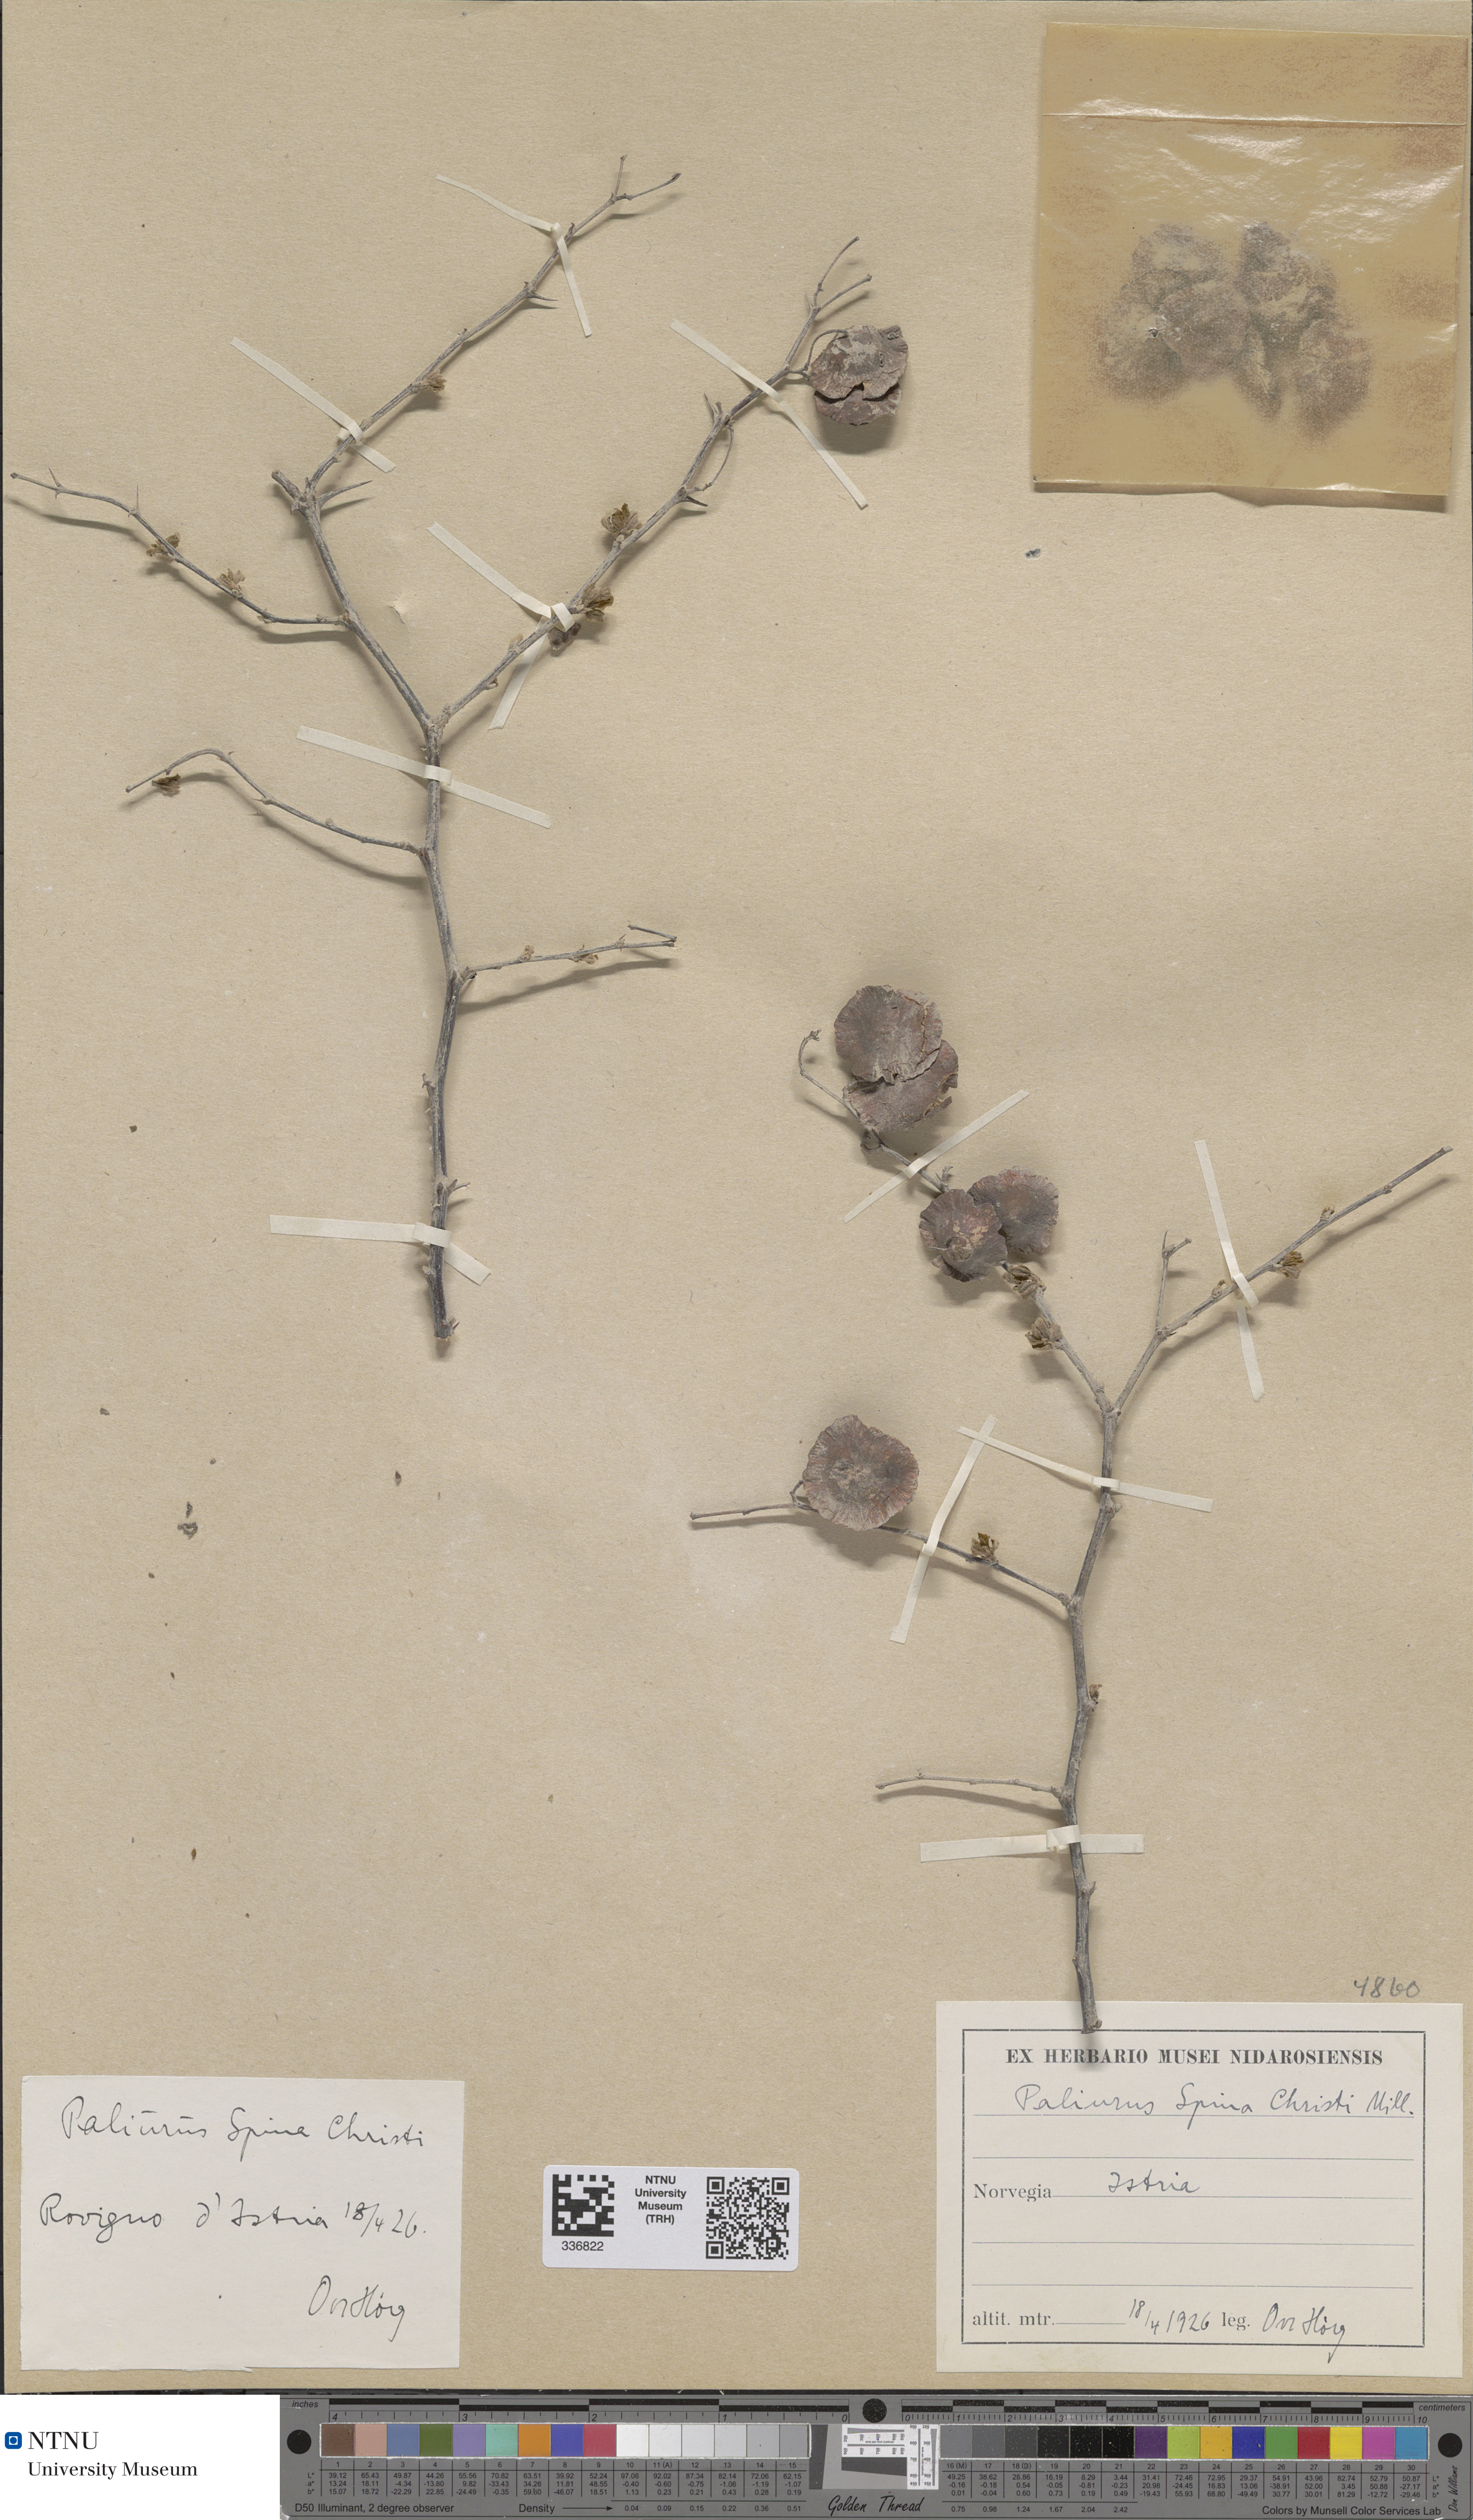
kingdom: Plantae
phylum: Tracheophyta
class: Magnoliopsida
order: Rosales
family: Rhamnaceae
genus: Paliurus
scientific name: Paliurus spina-christi
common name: Jeruselem thorn
